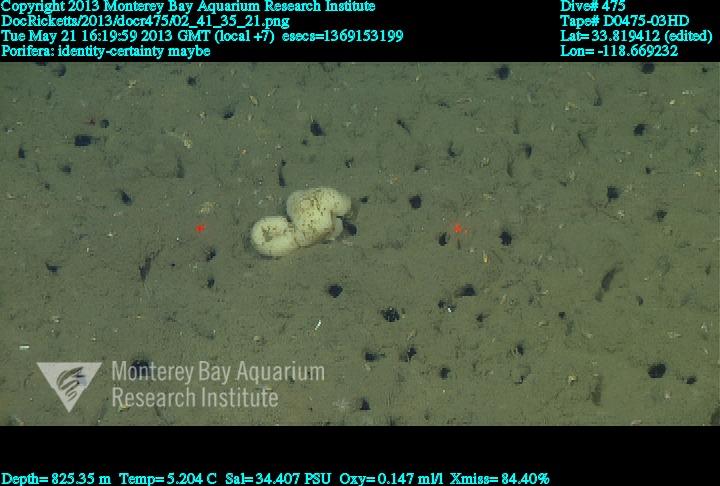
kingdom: Animalia
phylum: Porifera
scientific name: Porifera
